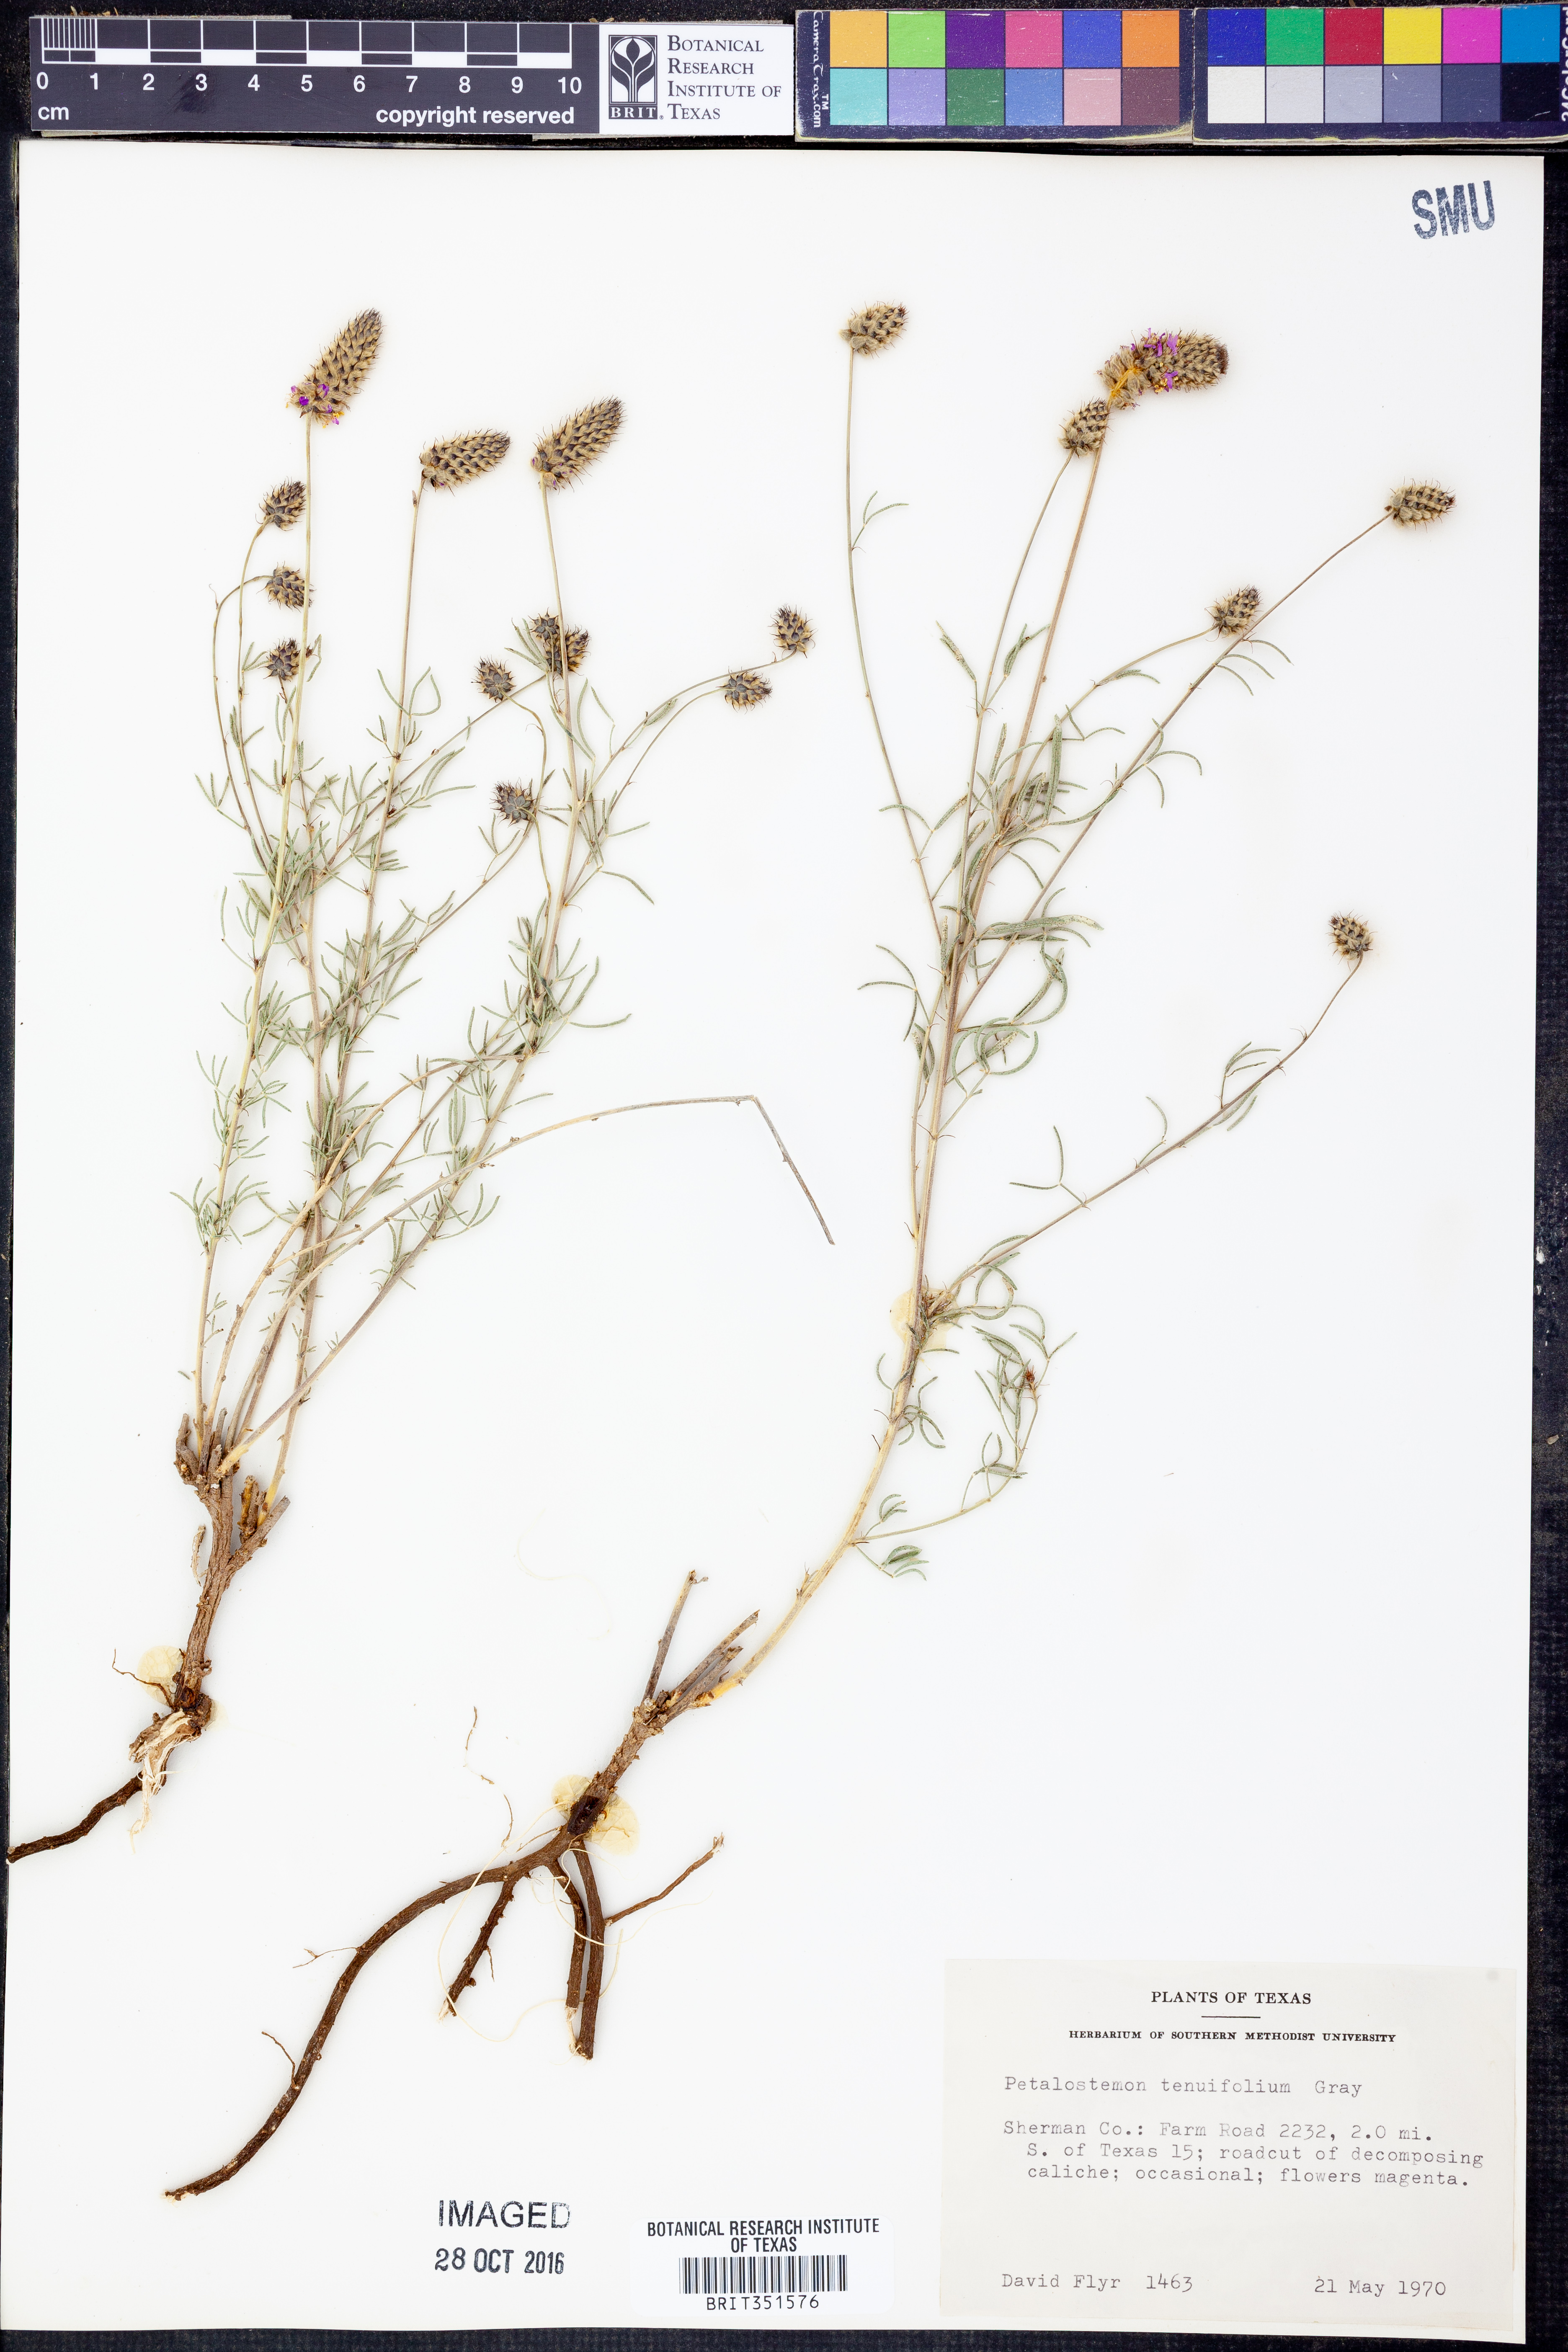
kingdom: Plantae
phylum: Tracheophyta
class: Magnoliopsida
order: Fabales
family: Fabaceae
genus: Dalea
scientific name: Dalea tenuifolia
